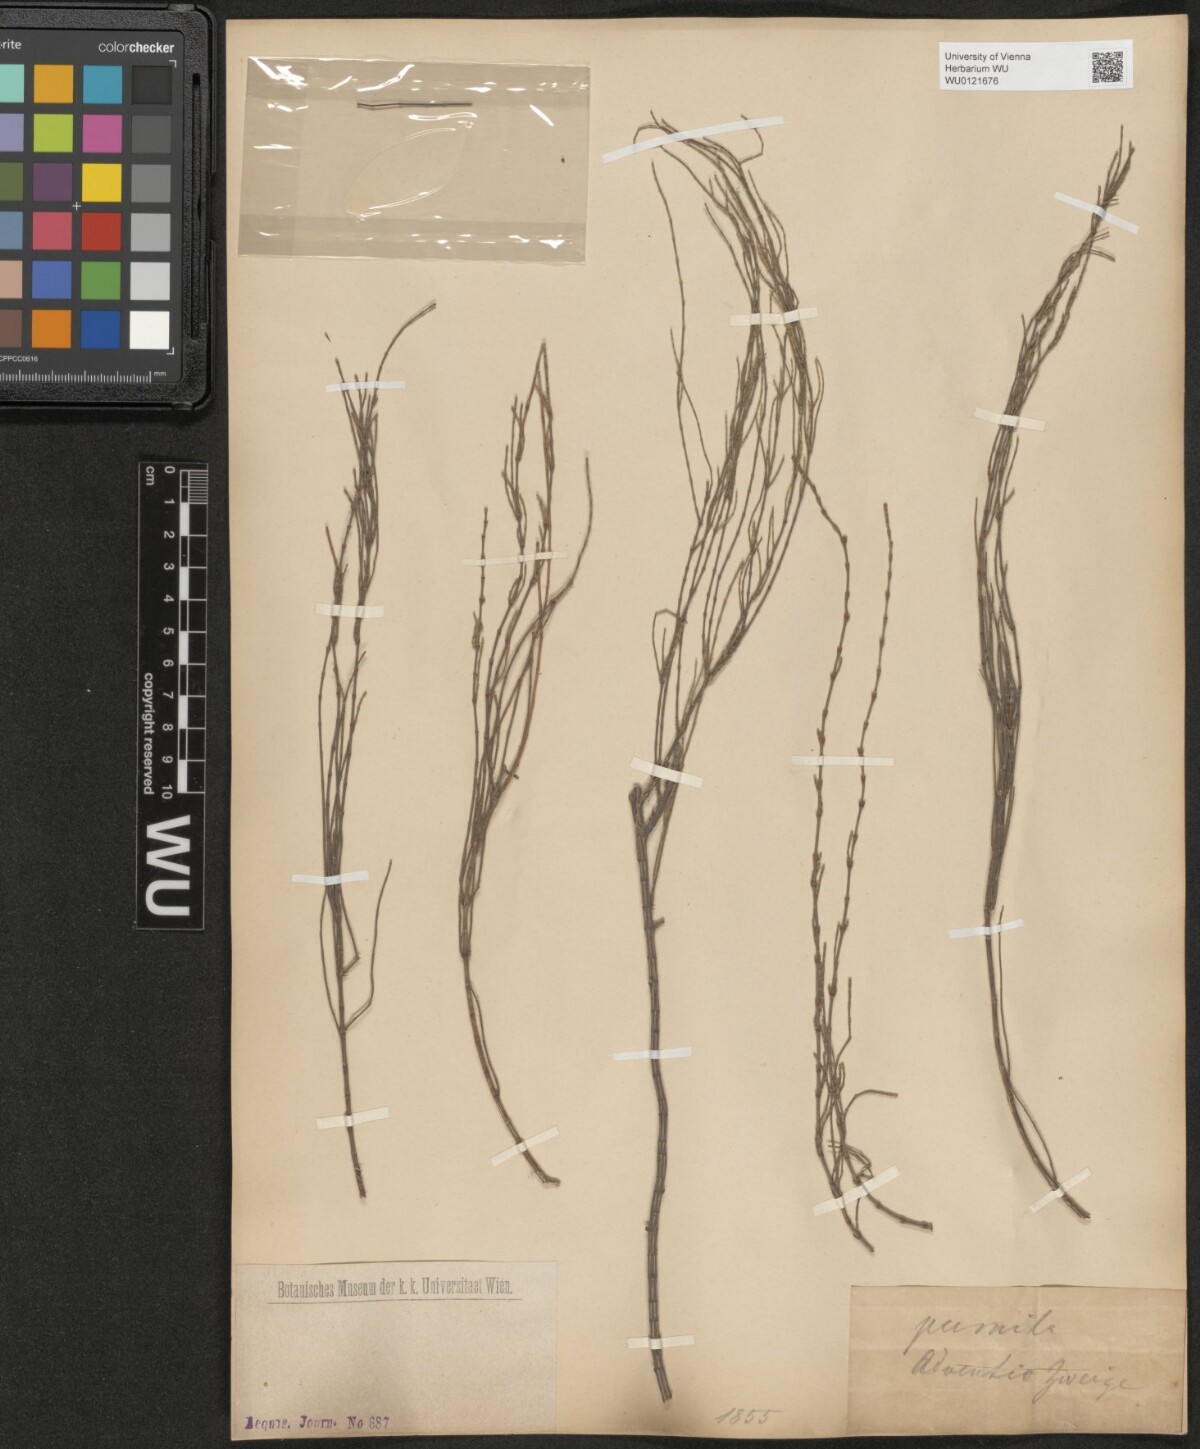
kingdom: Plantae
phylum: Tracheophyta
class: Magnoliopsida
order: Fagales
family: Casuarinaceae
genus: Allocasuarina
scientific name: Allocasuarina paludosa
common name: Scrub she-oak
